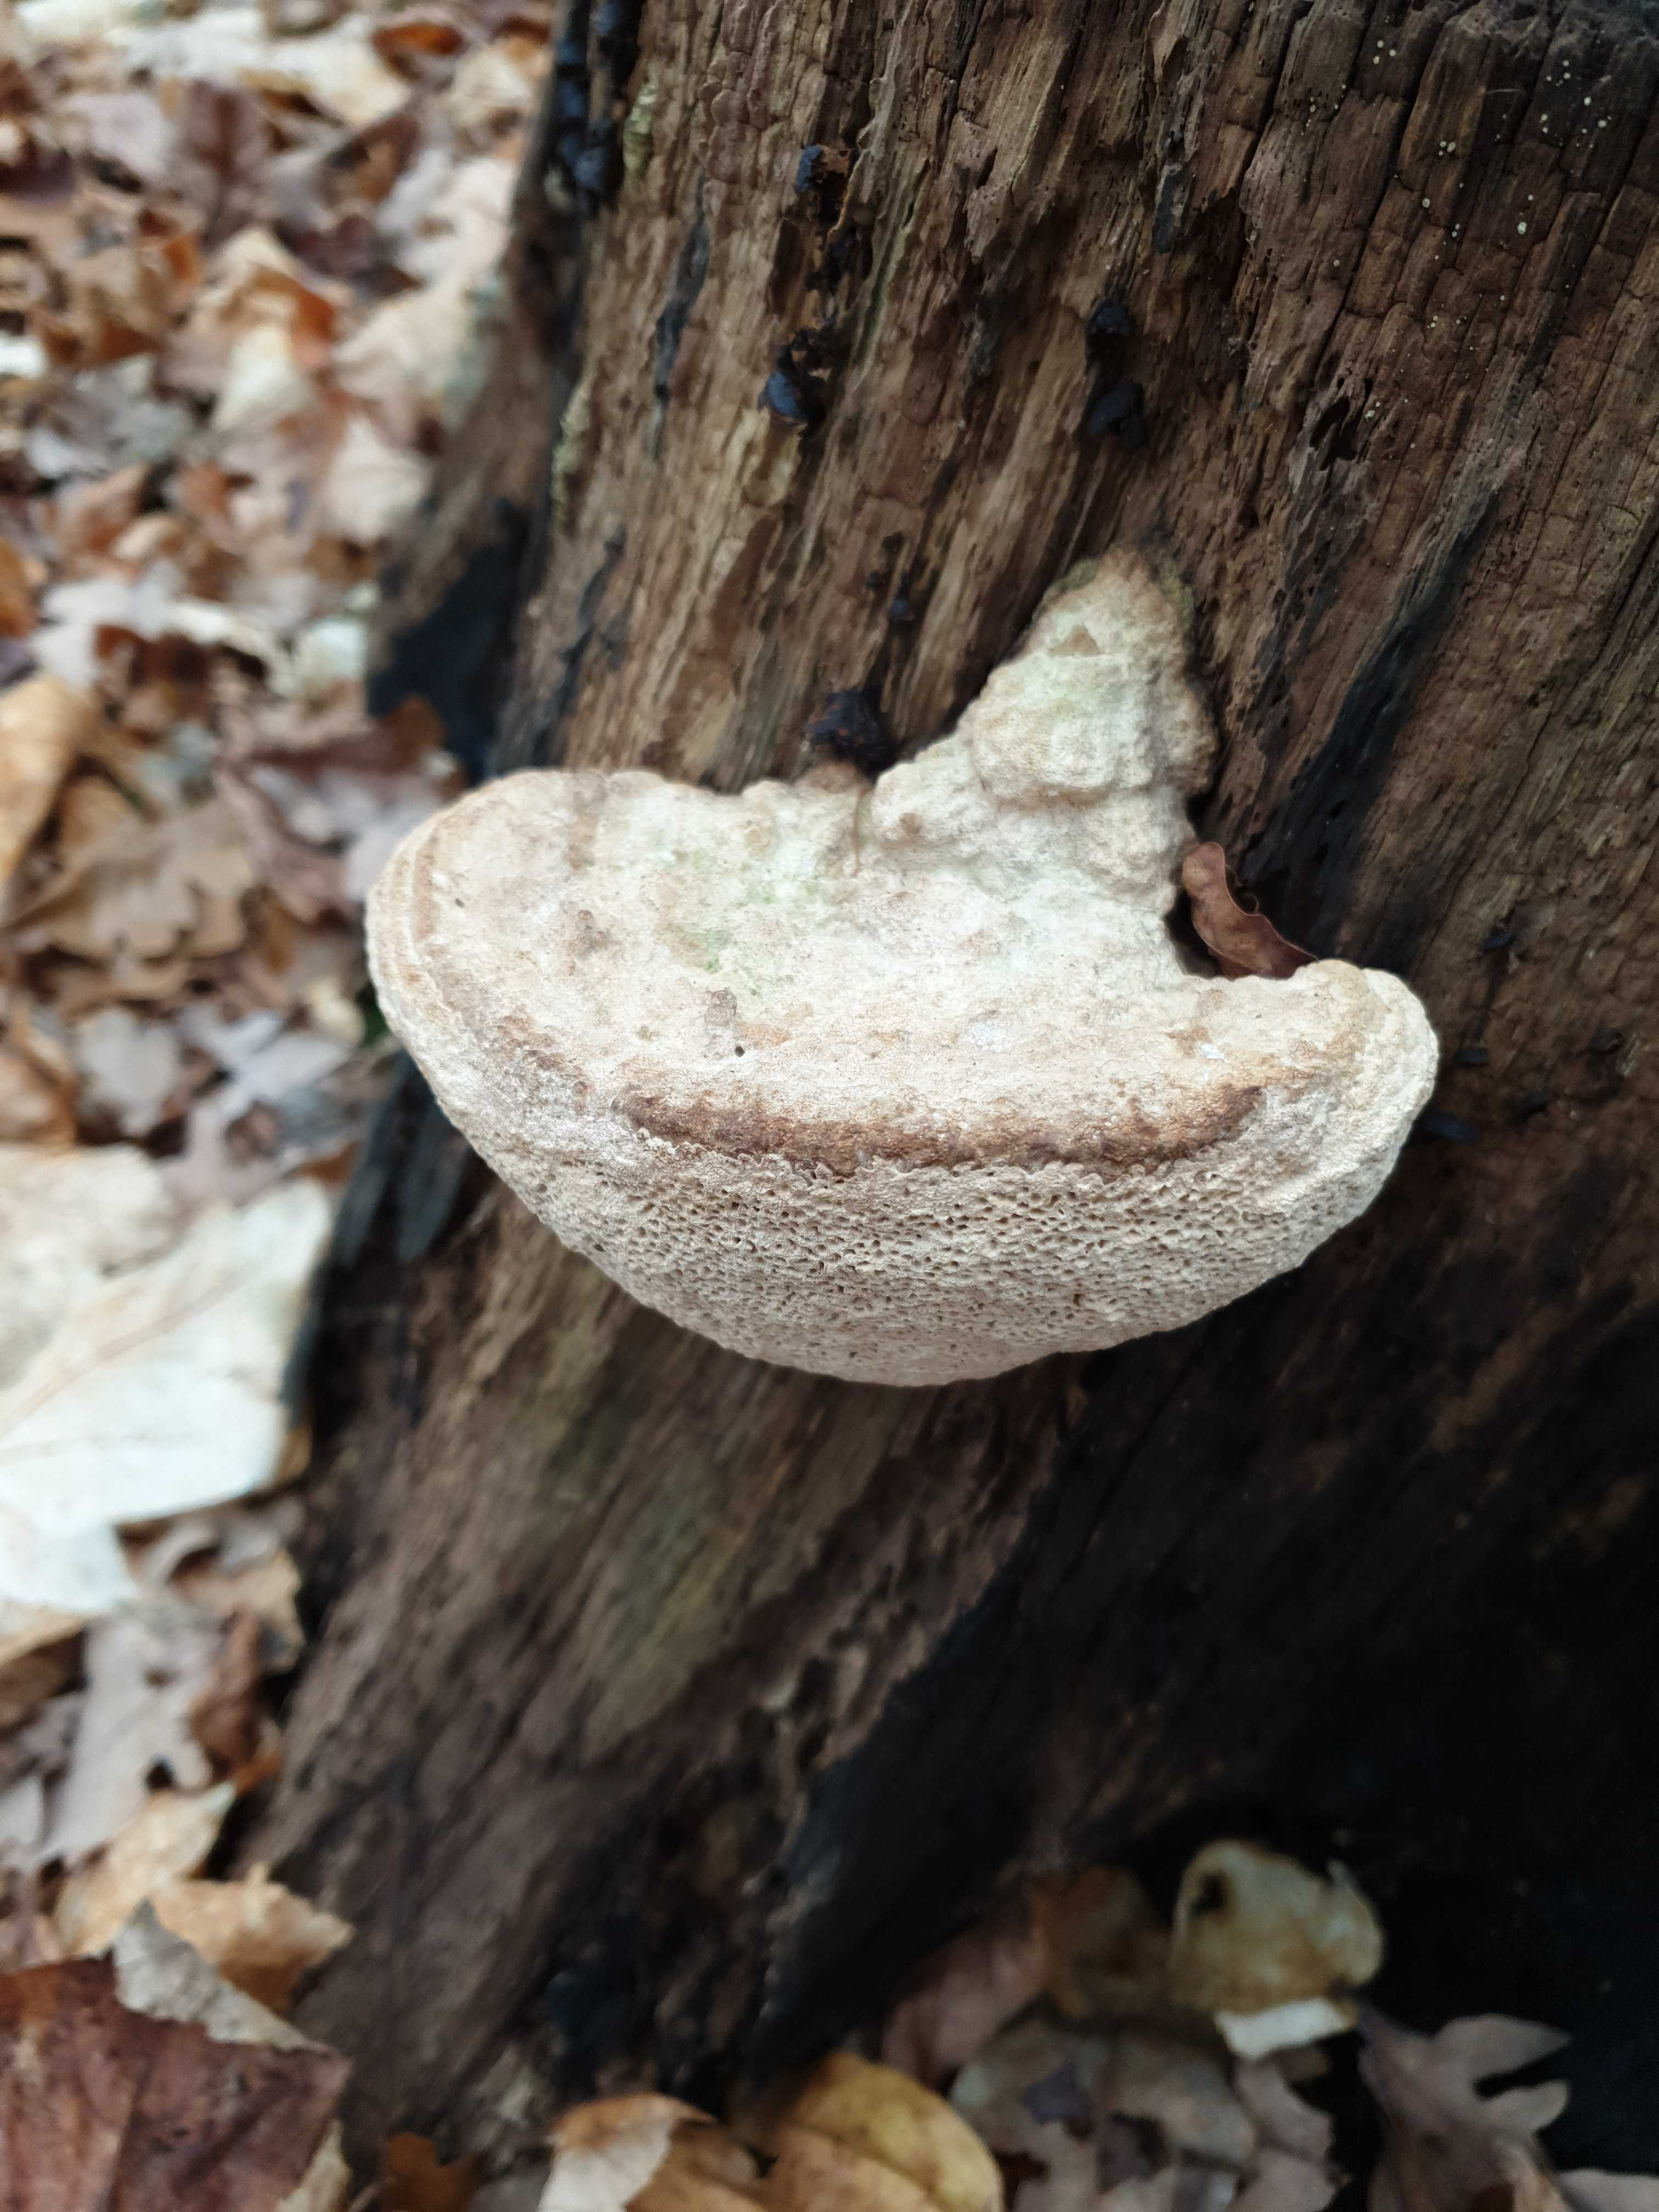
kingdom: Fungi
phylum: Basidiomycota
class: Agaricomycetes
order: Polyporales
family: Fomitopsidaceae
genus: Daedalea
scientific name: Daedalea quercina
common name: ege-labyrintsvamp
